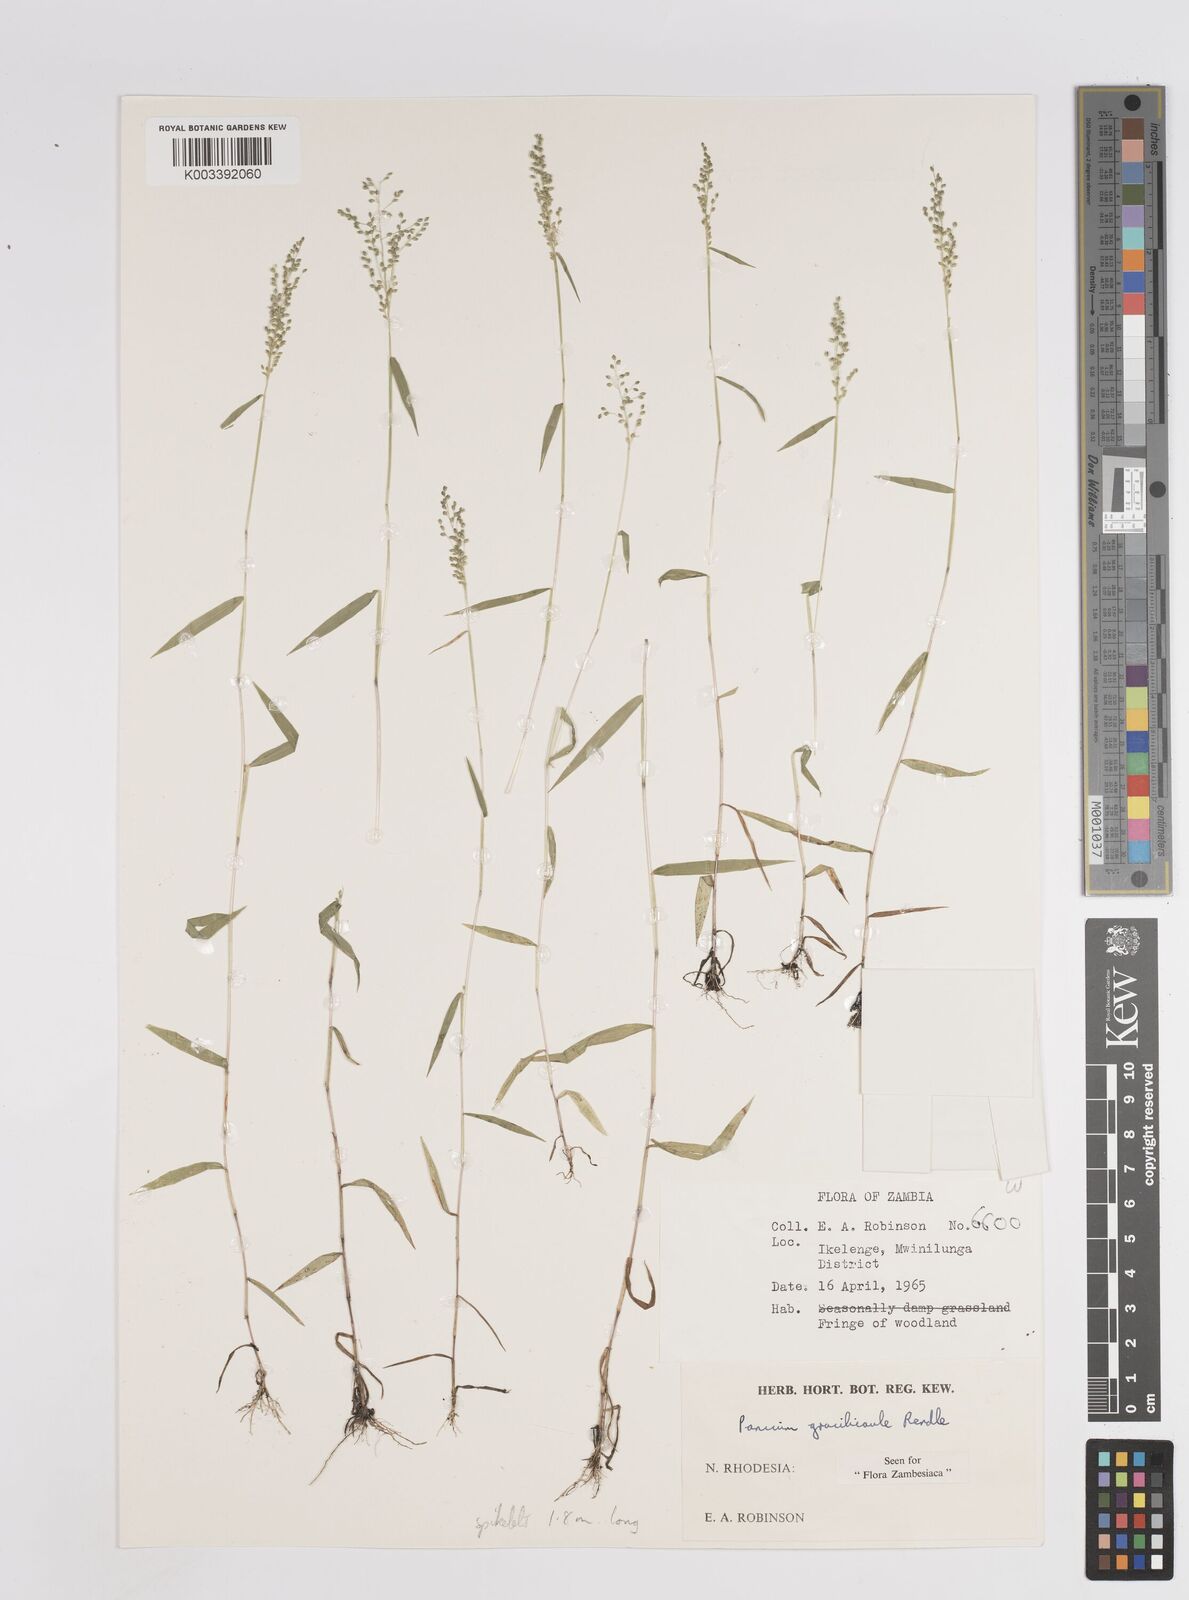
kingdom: Plantae
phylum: Tracheophyta
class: Liliopsida
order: Poales
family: Poaceae
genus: Trichanthecium
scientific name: Trichanthecium gracilicaule
